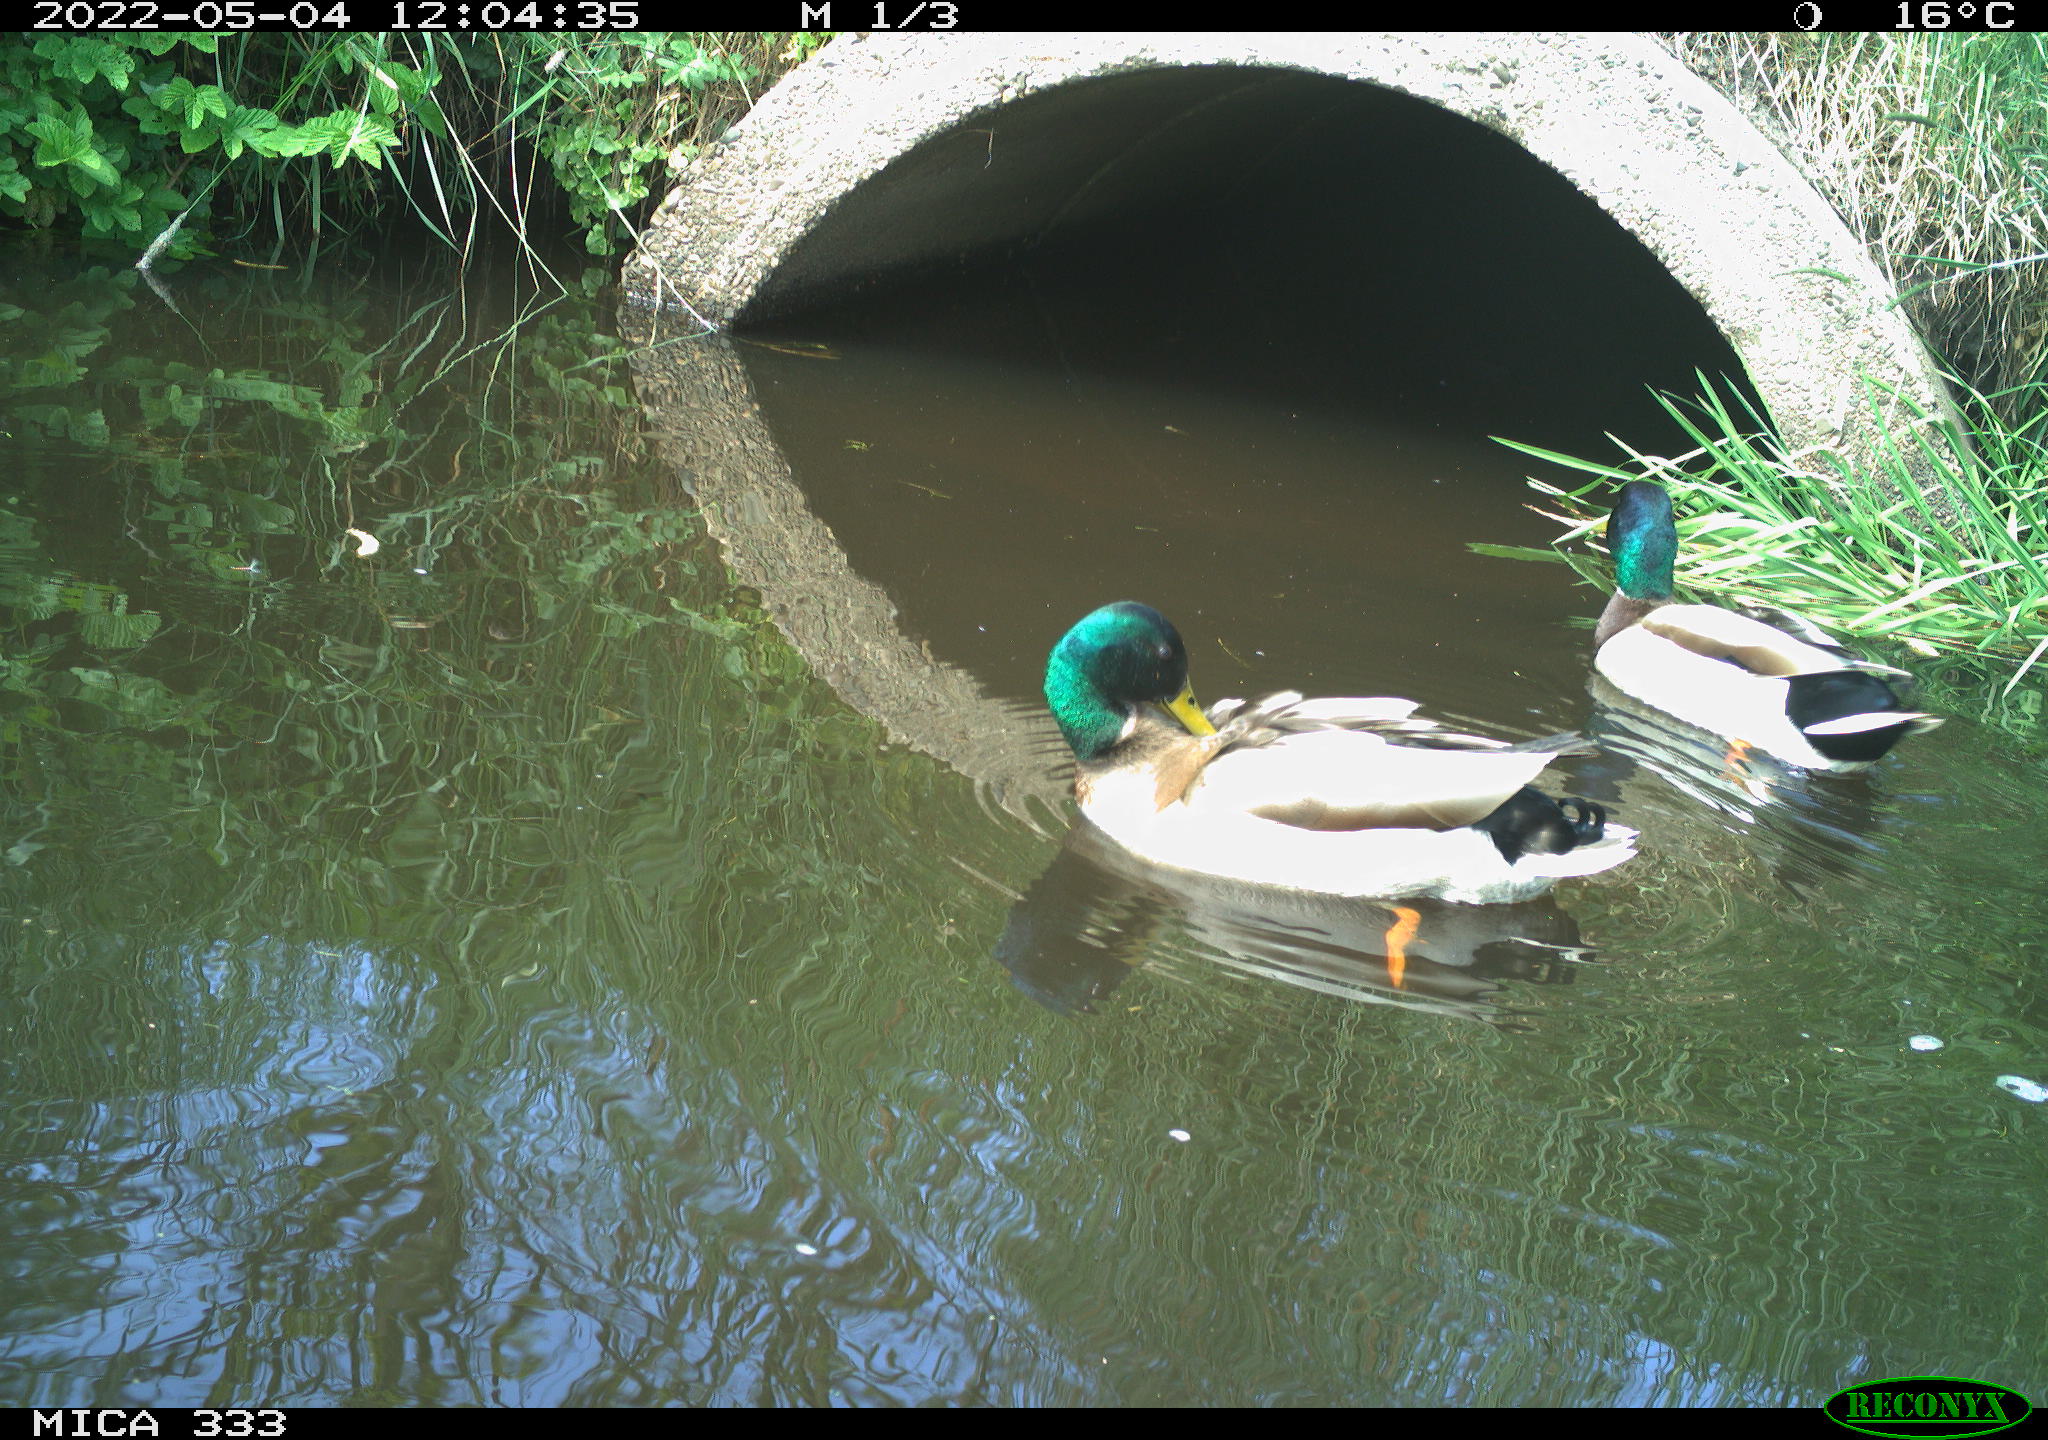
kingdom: Animalia
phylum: Chordata
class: Aves
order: Anseriformes
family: Anatidae
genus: Anas
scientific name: Anas platyrhynchos
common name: Mallard
